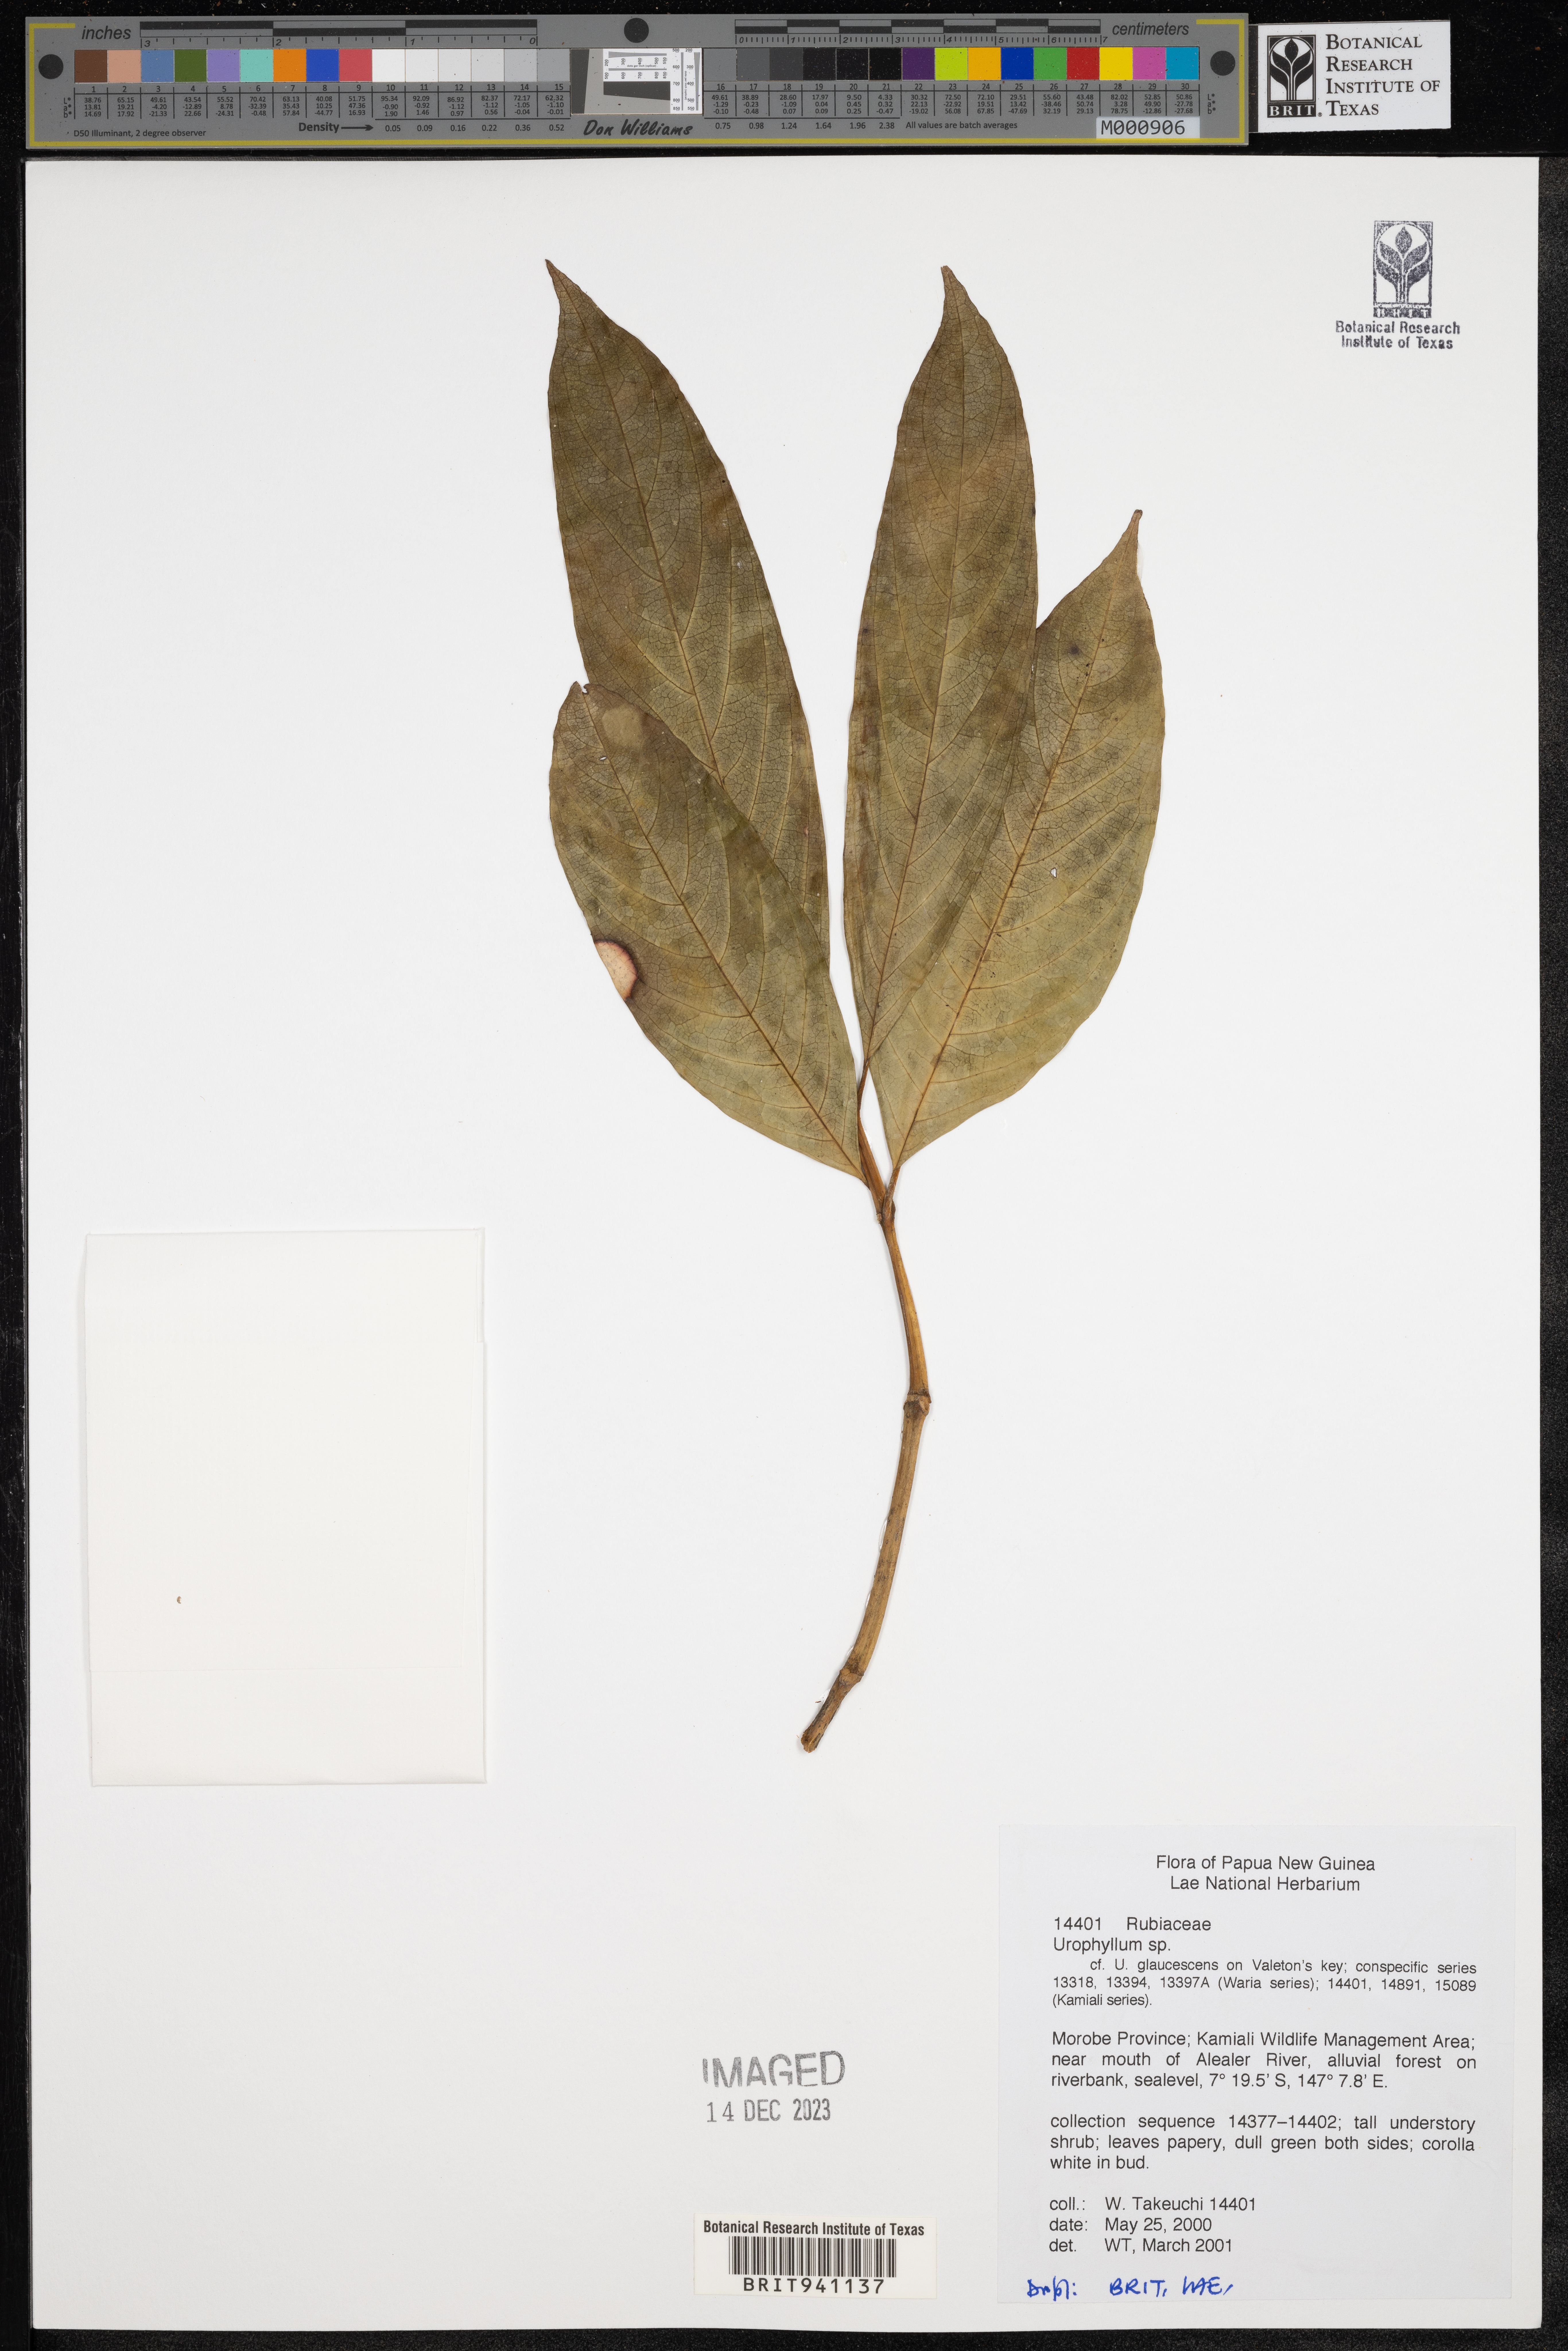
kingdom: Plantae
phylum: Tracheophyta
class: Magnoliopsida
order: Gentianales
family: Rubiaceae
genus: Urophyllum
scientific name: Urophyllum
